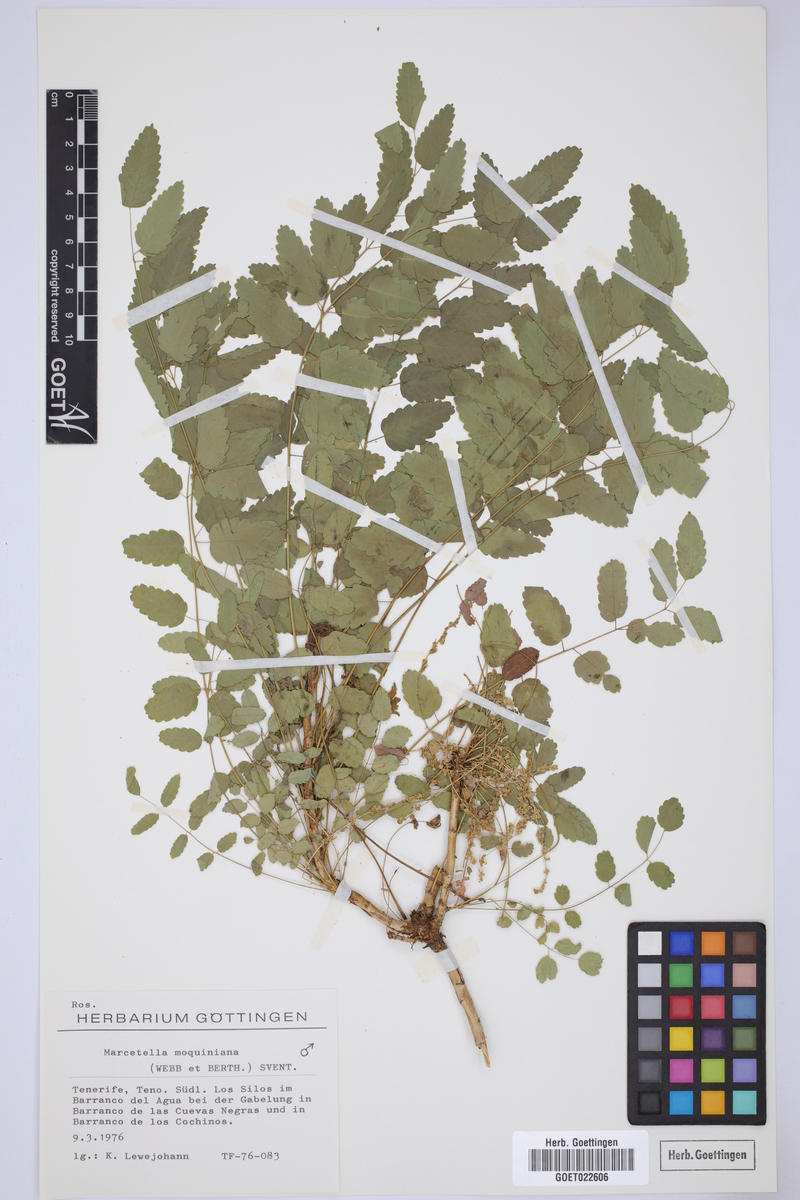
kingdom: Plantae
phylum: Tracheophyta
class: Magnoliopsida
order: Rosales
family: Rosaceae
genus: Marcetella
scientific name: Marcetella moquiniana
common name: Burnet tree
